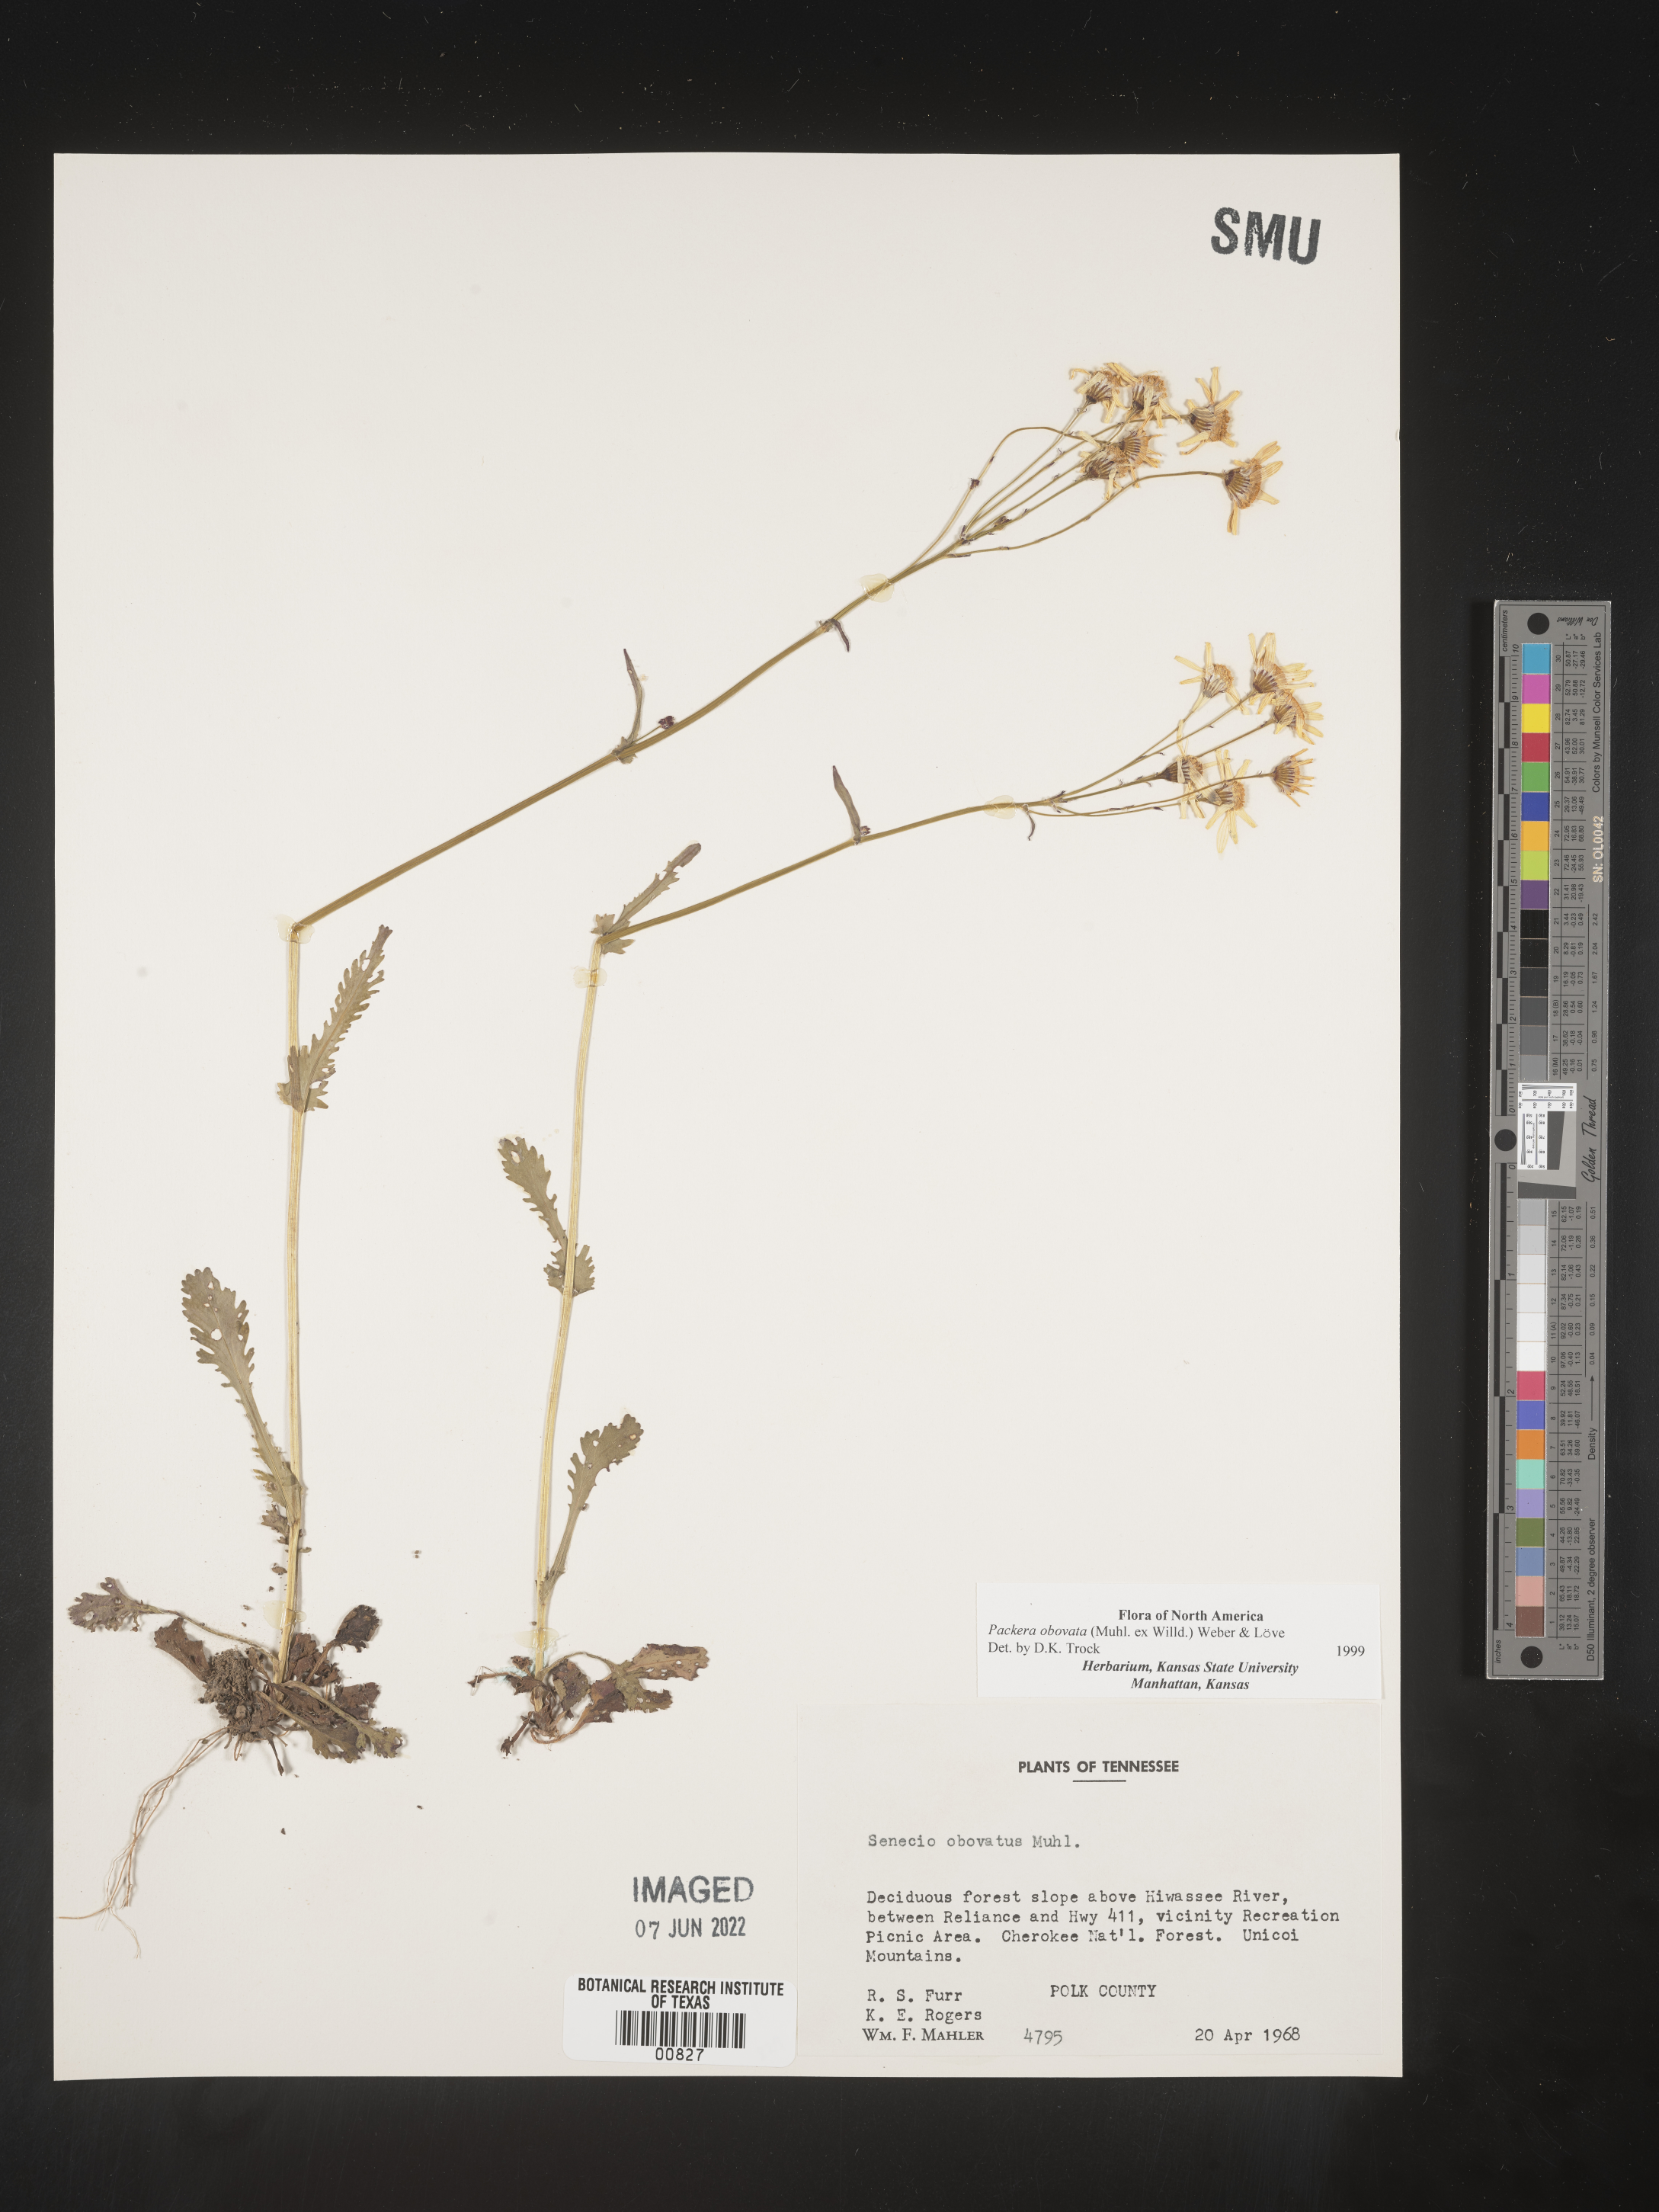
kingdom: Plantae
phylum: Tracheophyta
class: Magnoliopsida
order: Asterales
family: Asteraceae
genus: Packera
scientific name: Packera obovata
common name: Round-leaf ragwort
